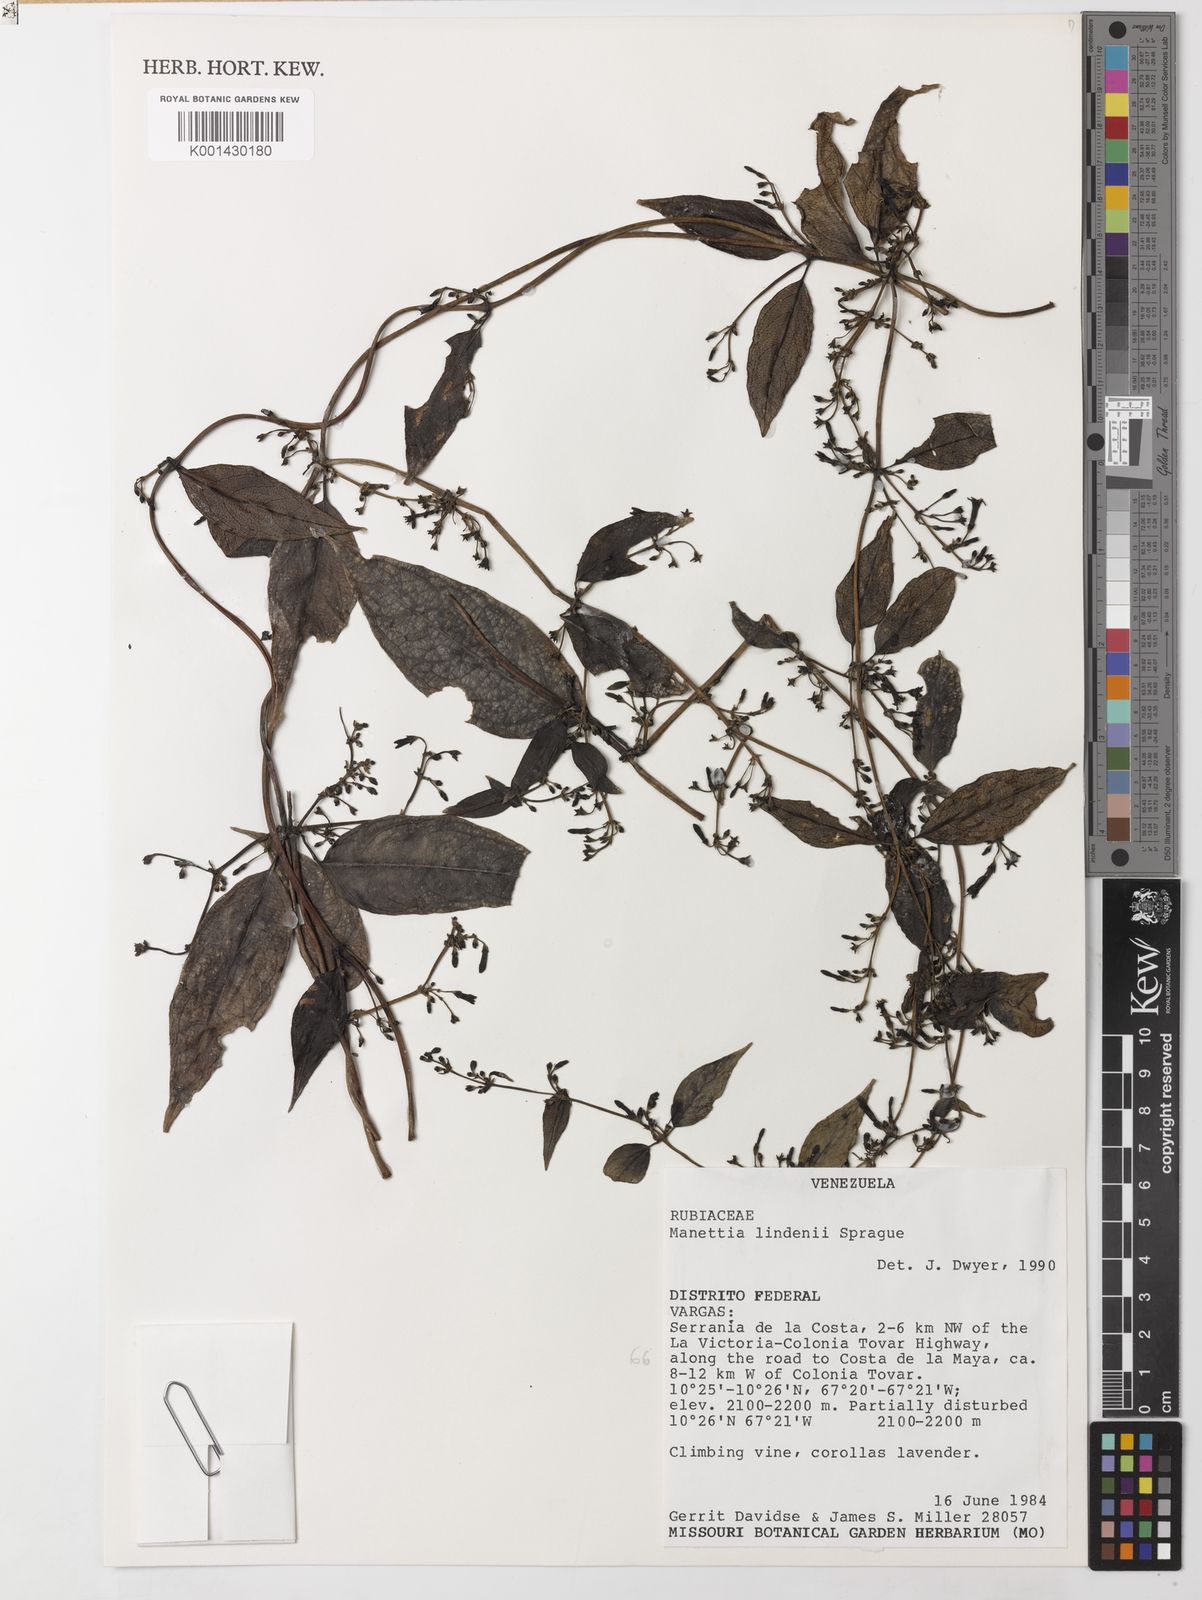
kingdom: Plantae
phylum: Tracheophyta
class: Magnoliopsida
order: Gentianales
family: Rubiaceae
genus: Manettia
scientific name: Manettia lindenii
